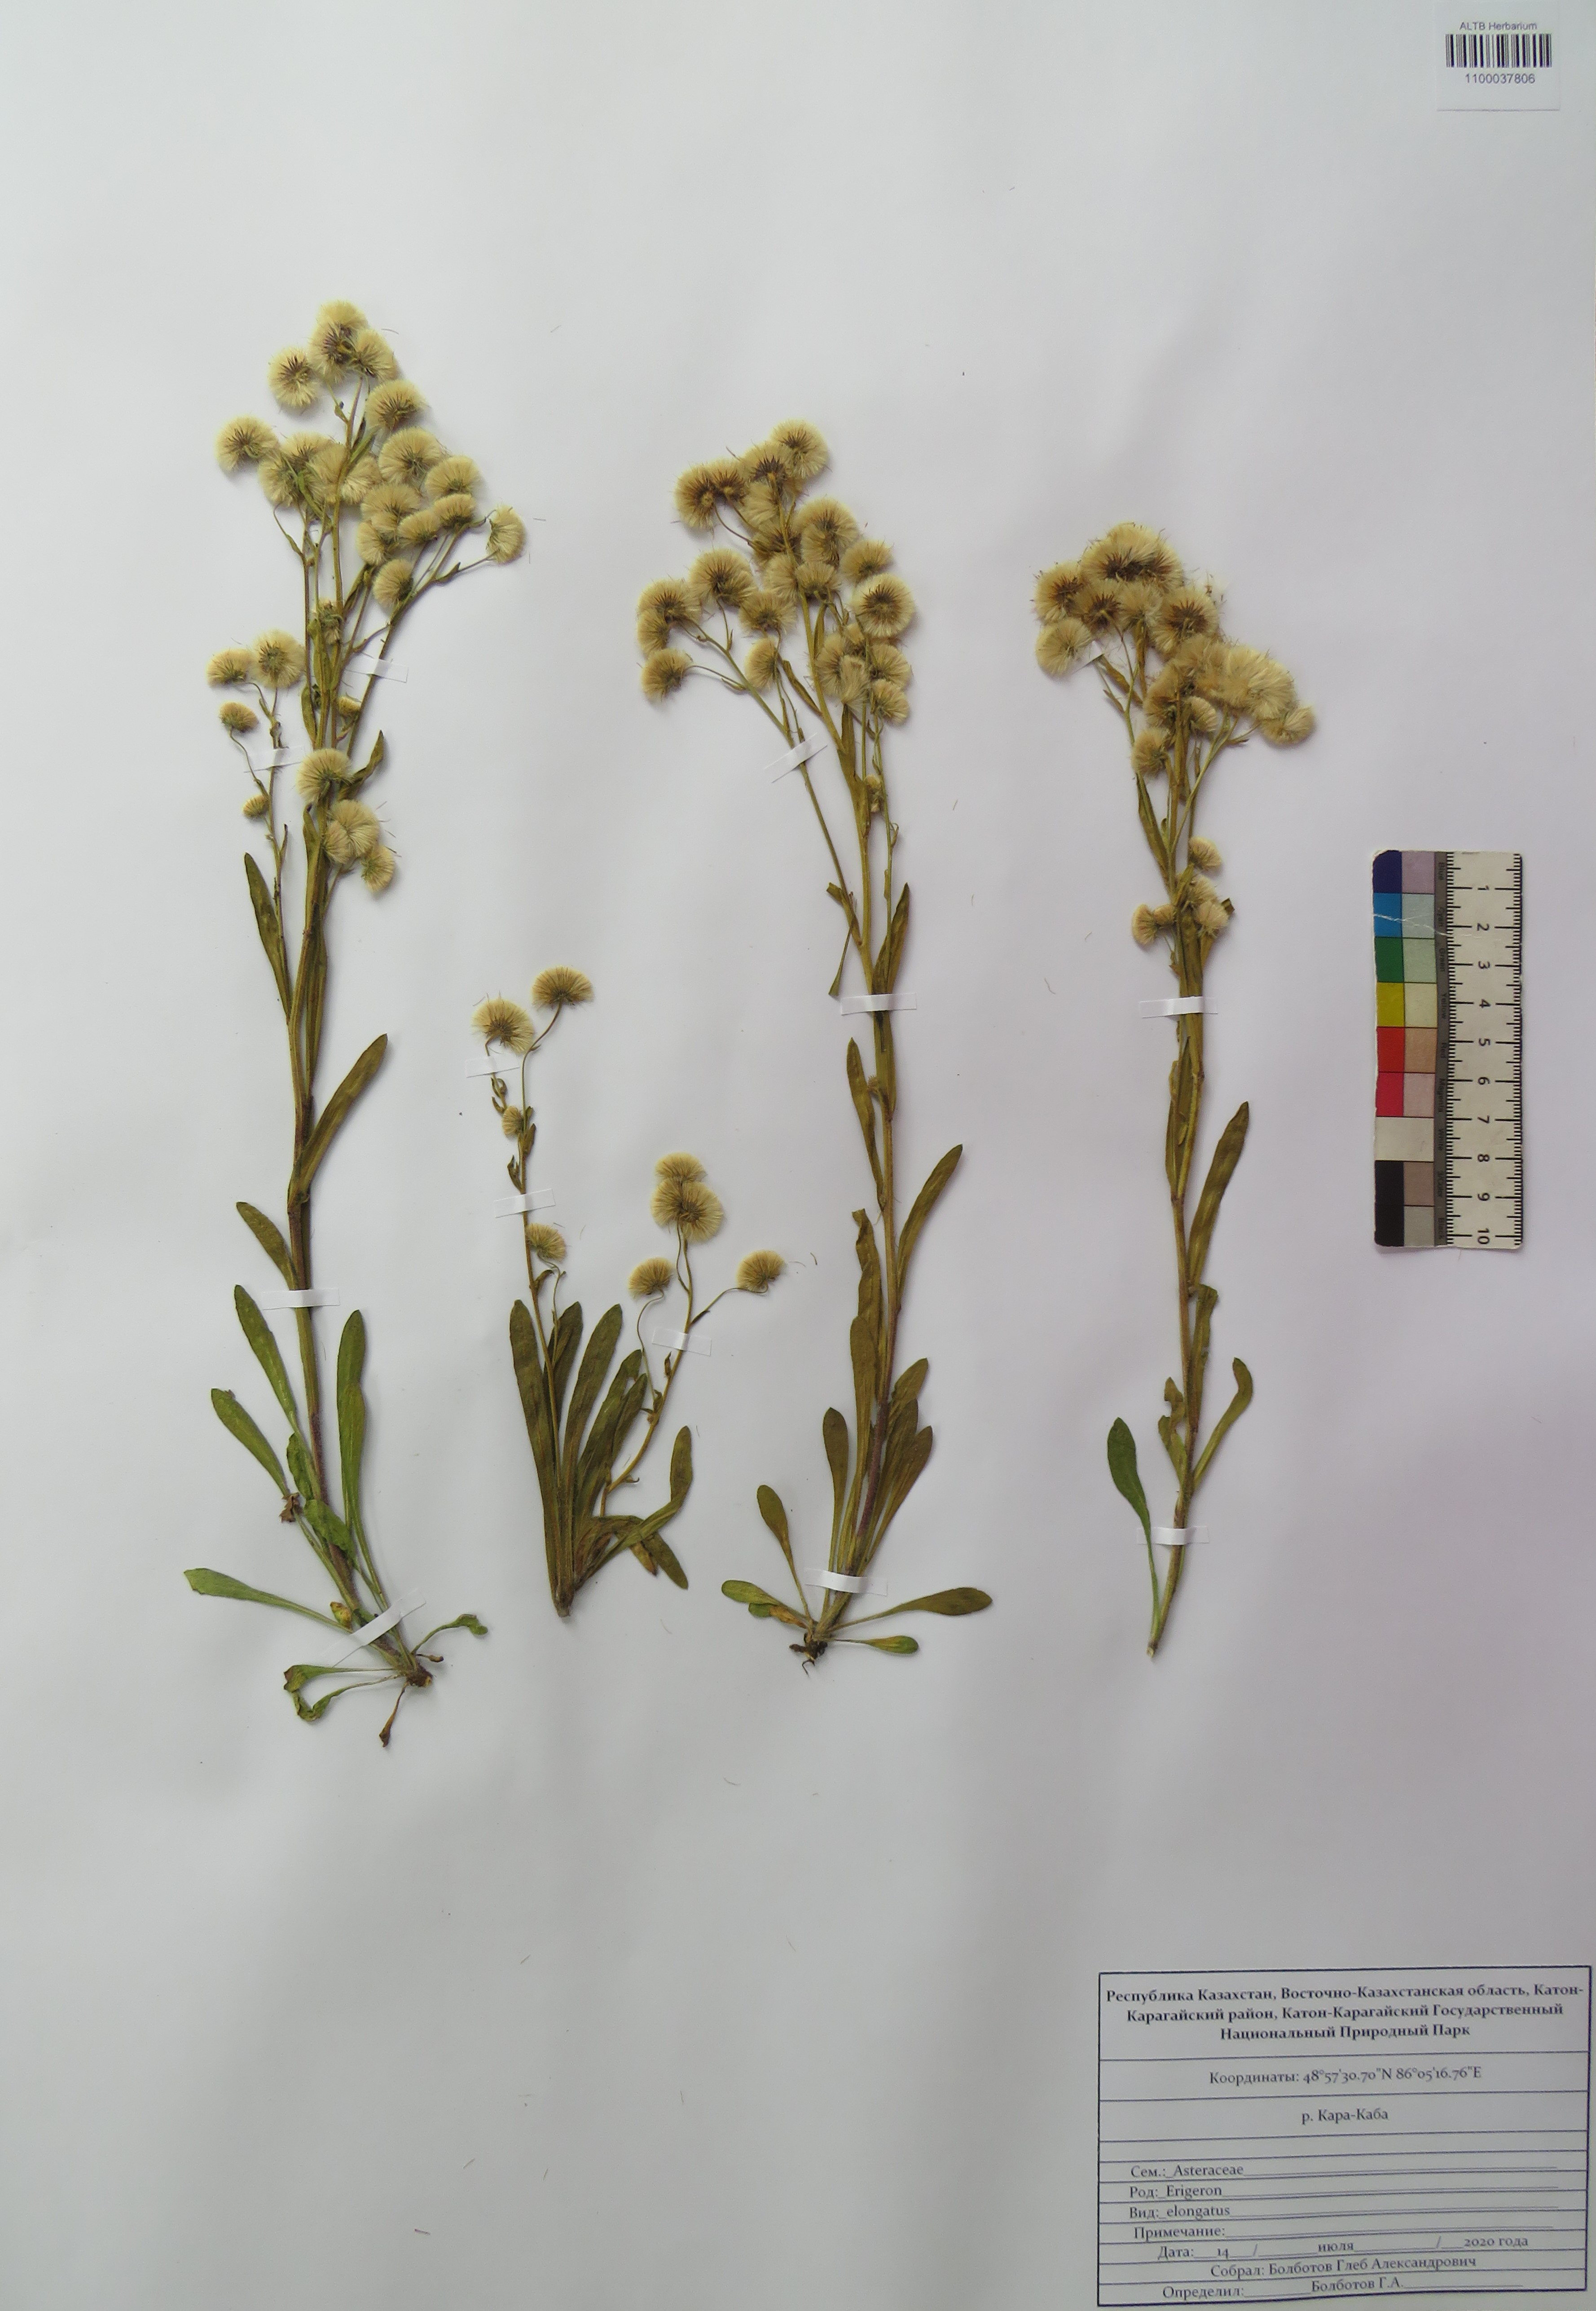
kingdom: Plantae
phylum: Tracheophyta
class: Magnoliopsida
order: Asterales
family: Asteraceae
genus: Erigeron
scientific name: Erigeron politus
